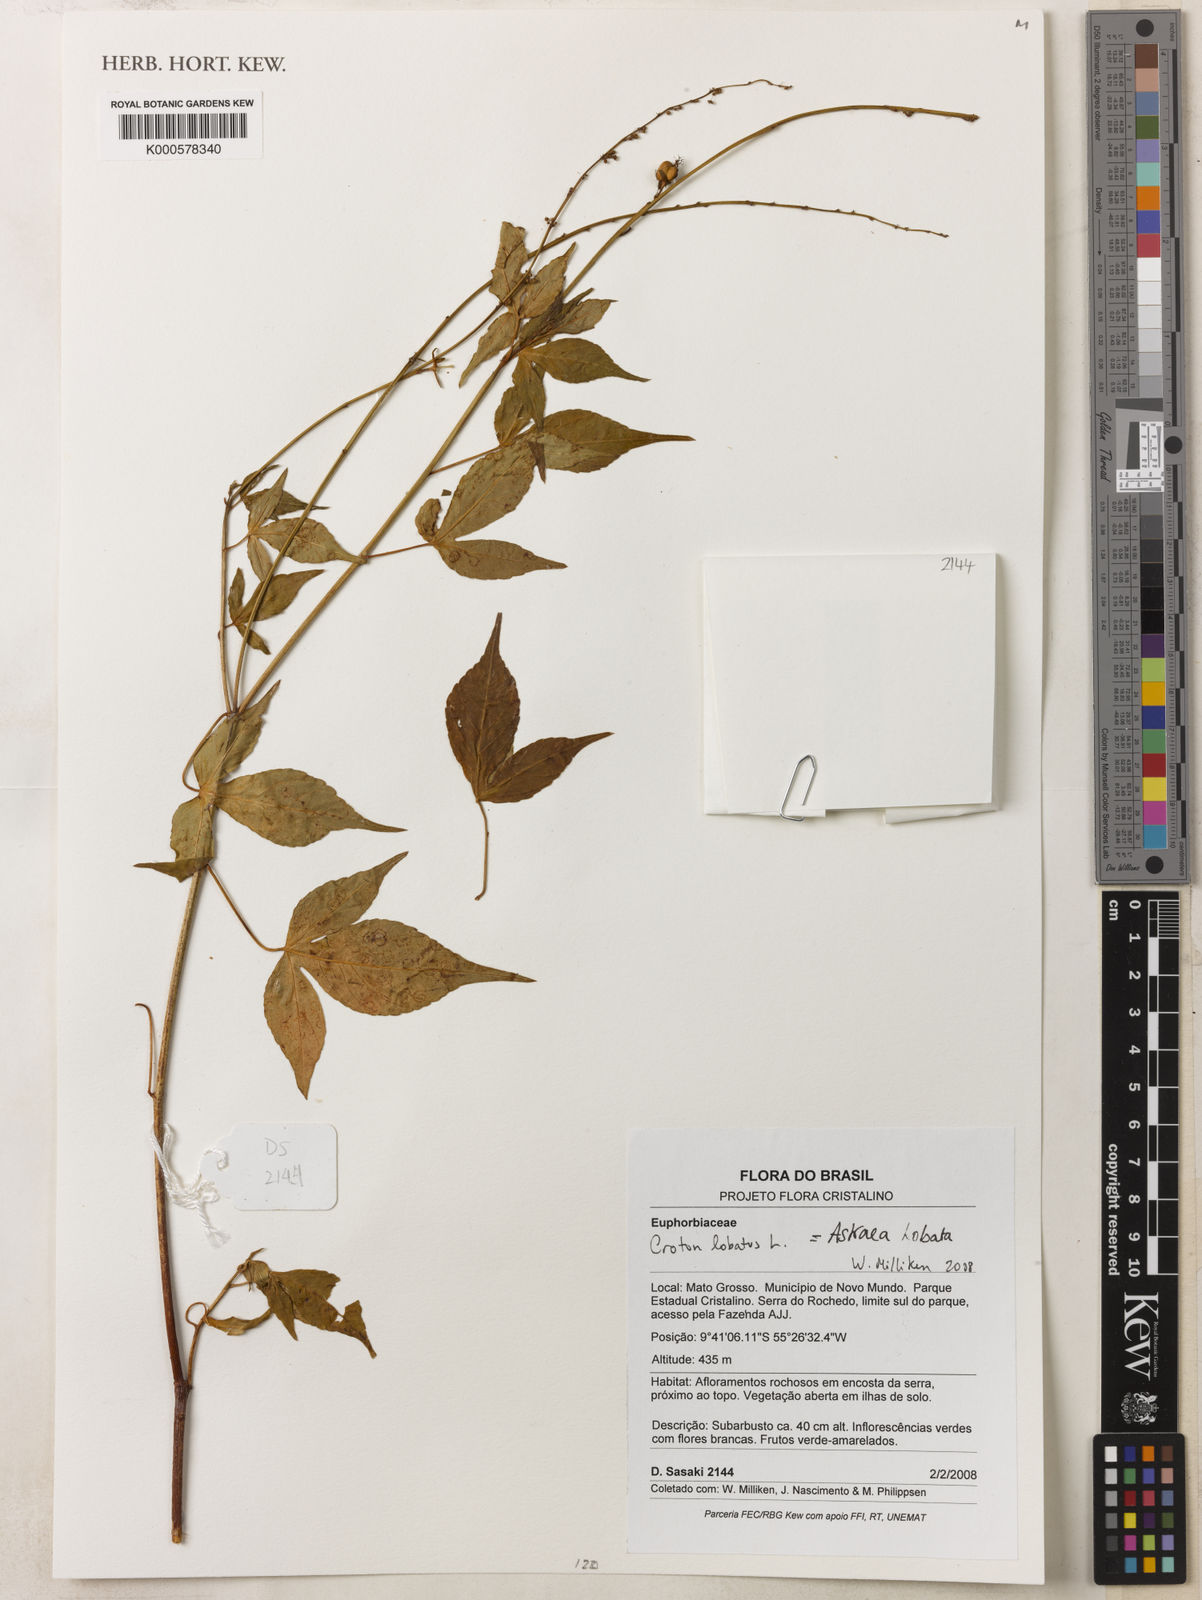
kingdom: Plantae
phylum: Tracheophyta
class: Magnoliopsida
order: Malpighiales
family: Euphorbiaceae
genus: Astraea
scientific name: Astraea lobata
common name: Lobed croton
